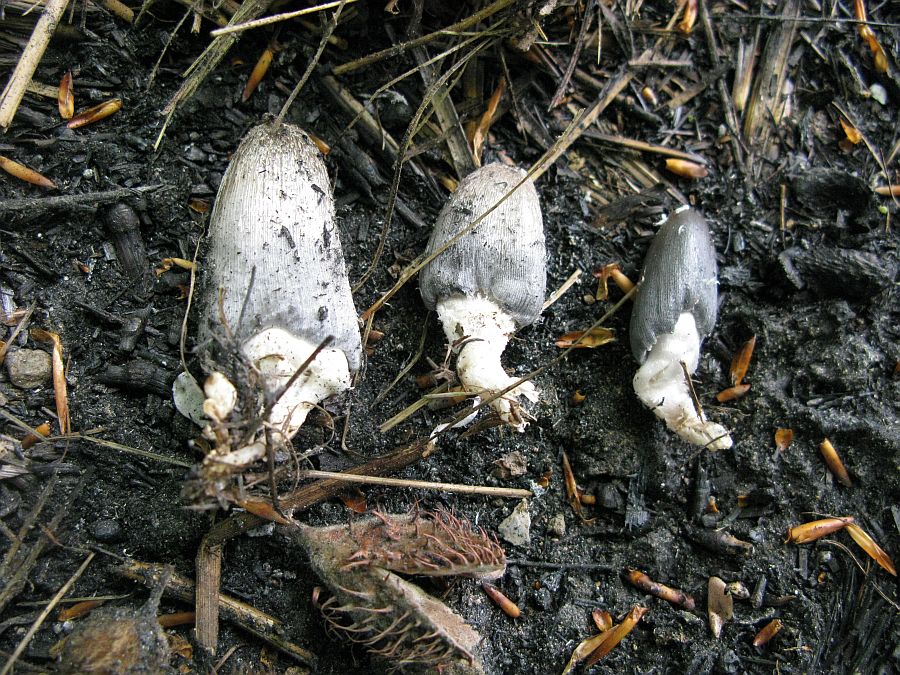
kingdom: Fungi
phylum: Basidiomycota
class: Agaricomycetes
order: Agaricales
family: Psathyrellaceae
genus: Coprinopsis
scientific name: Coprinopsis macrocephala
